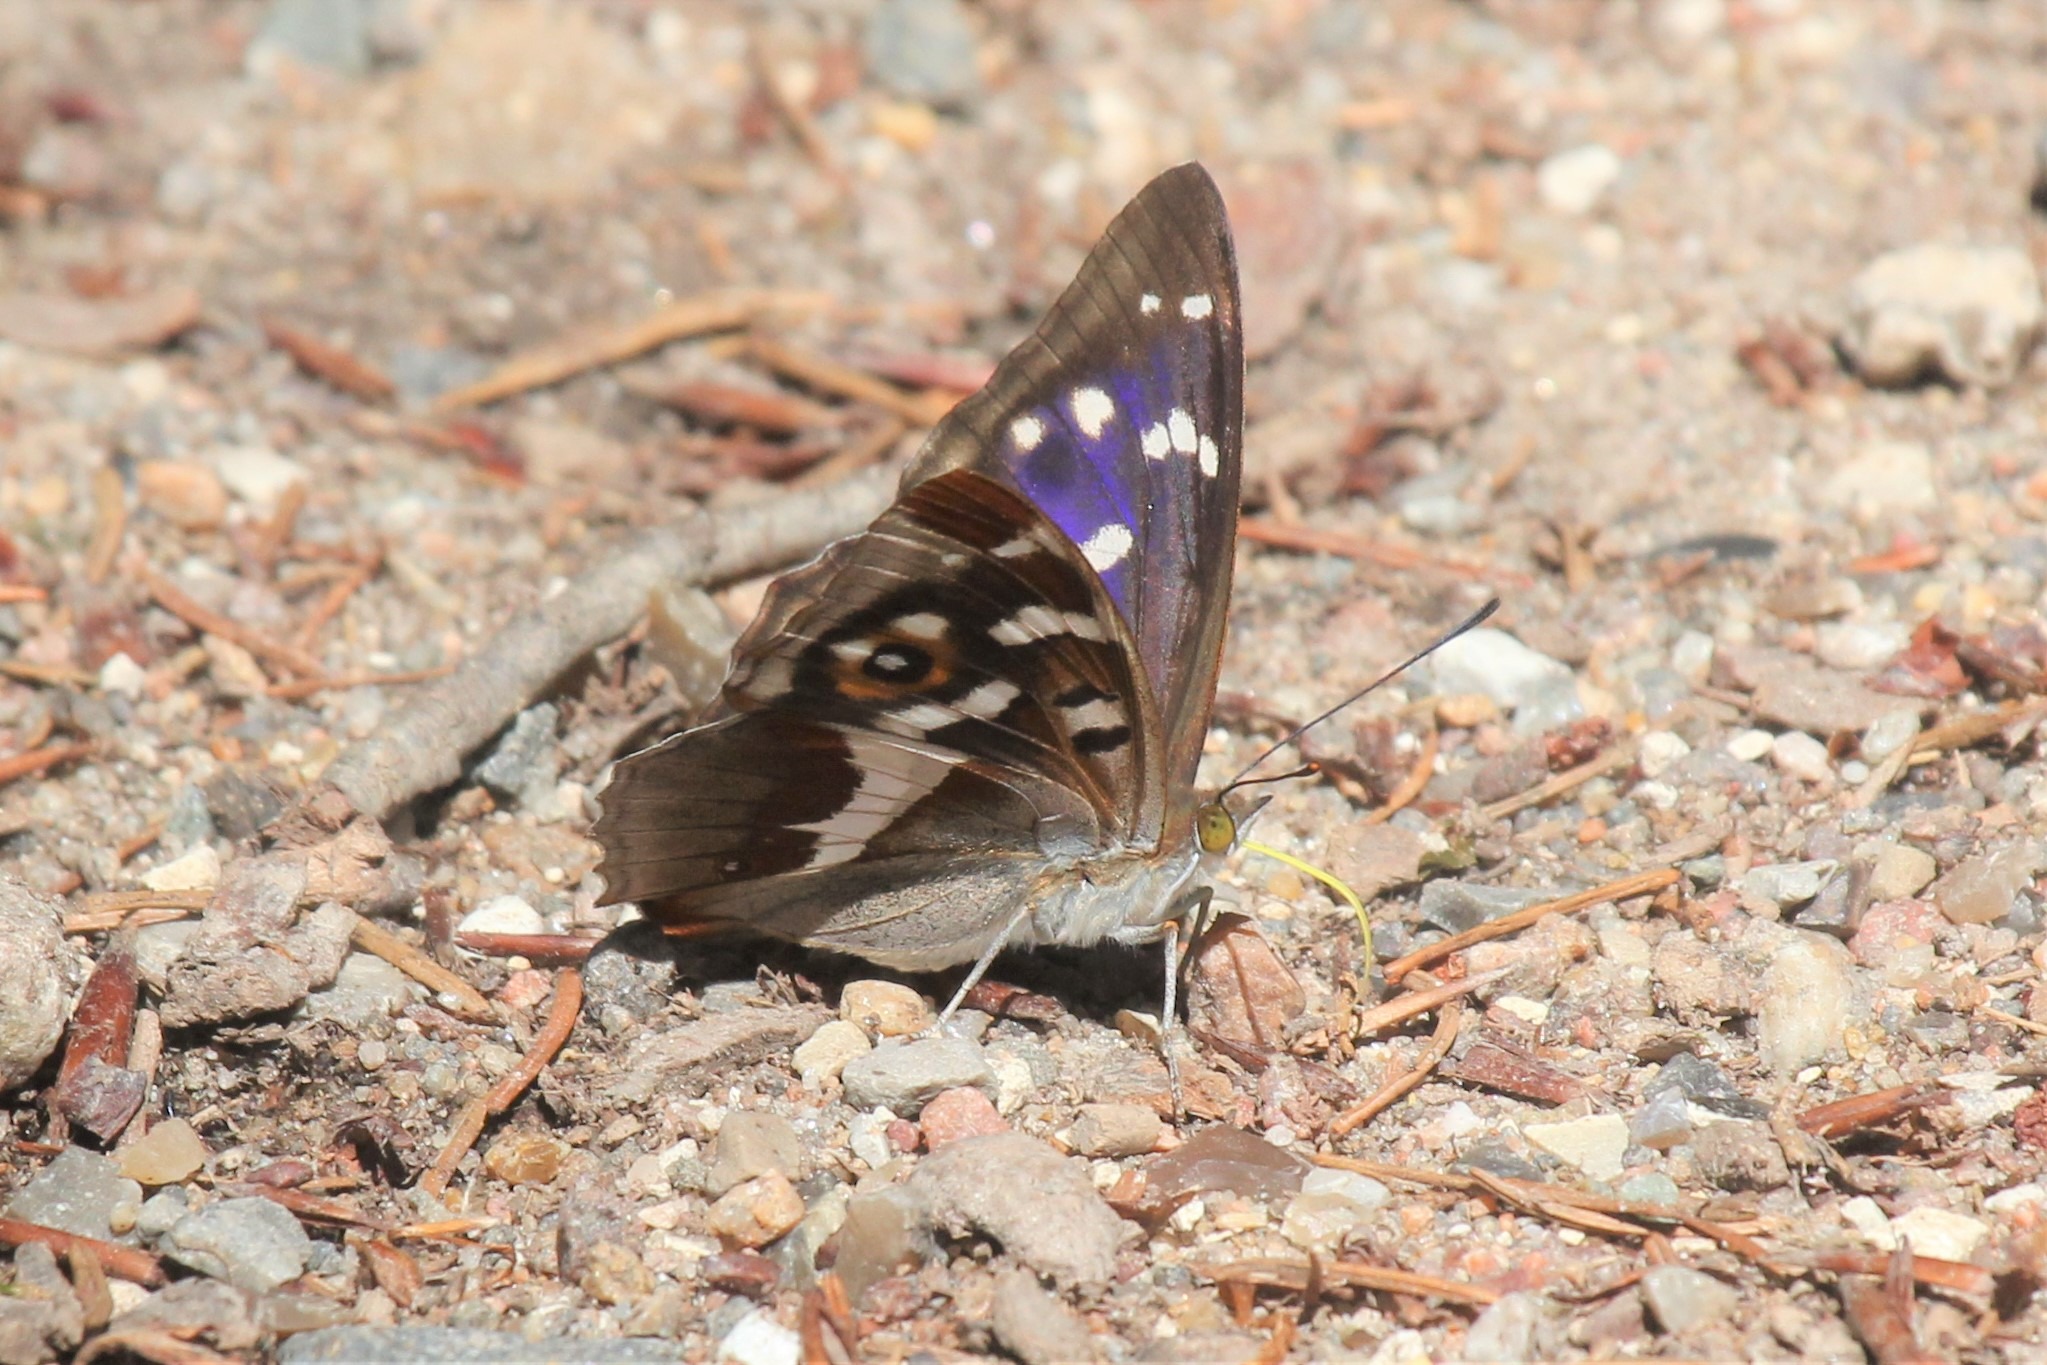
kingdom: Animalia
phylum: Arthropoda
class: Insecta
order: Lepidoptera
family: Nymphalidae
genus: Apatura
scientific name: Apatura iris
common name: Iris
